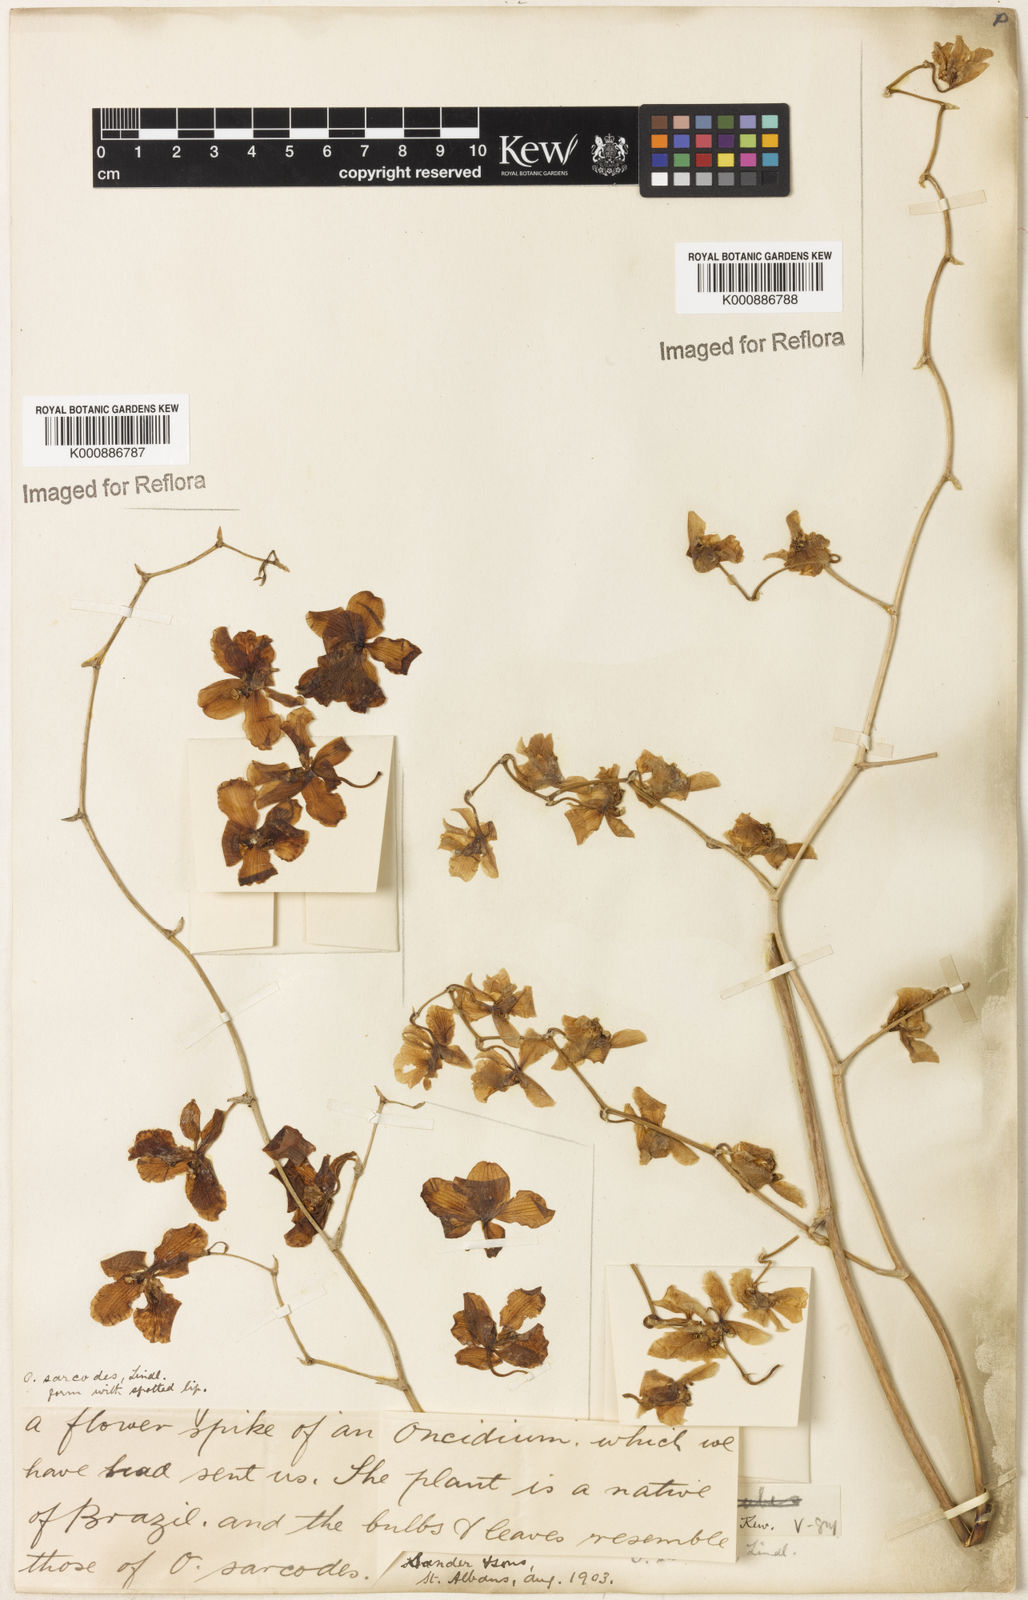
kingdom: Plantae
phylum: Tracheophyta
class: Liliopsida
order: Asparagales
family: Orchidaceae
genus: Gomesa
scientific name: Gomesa sarcodes
